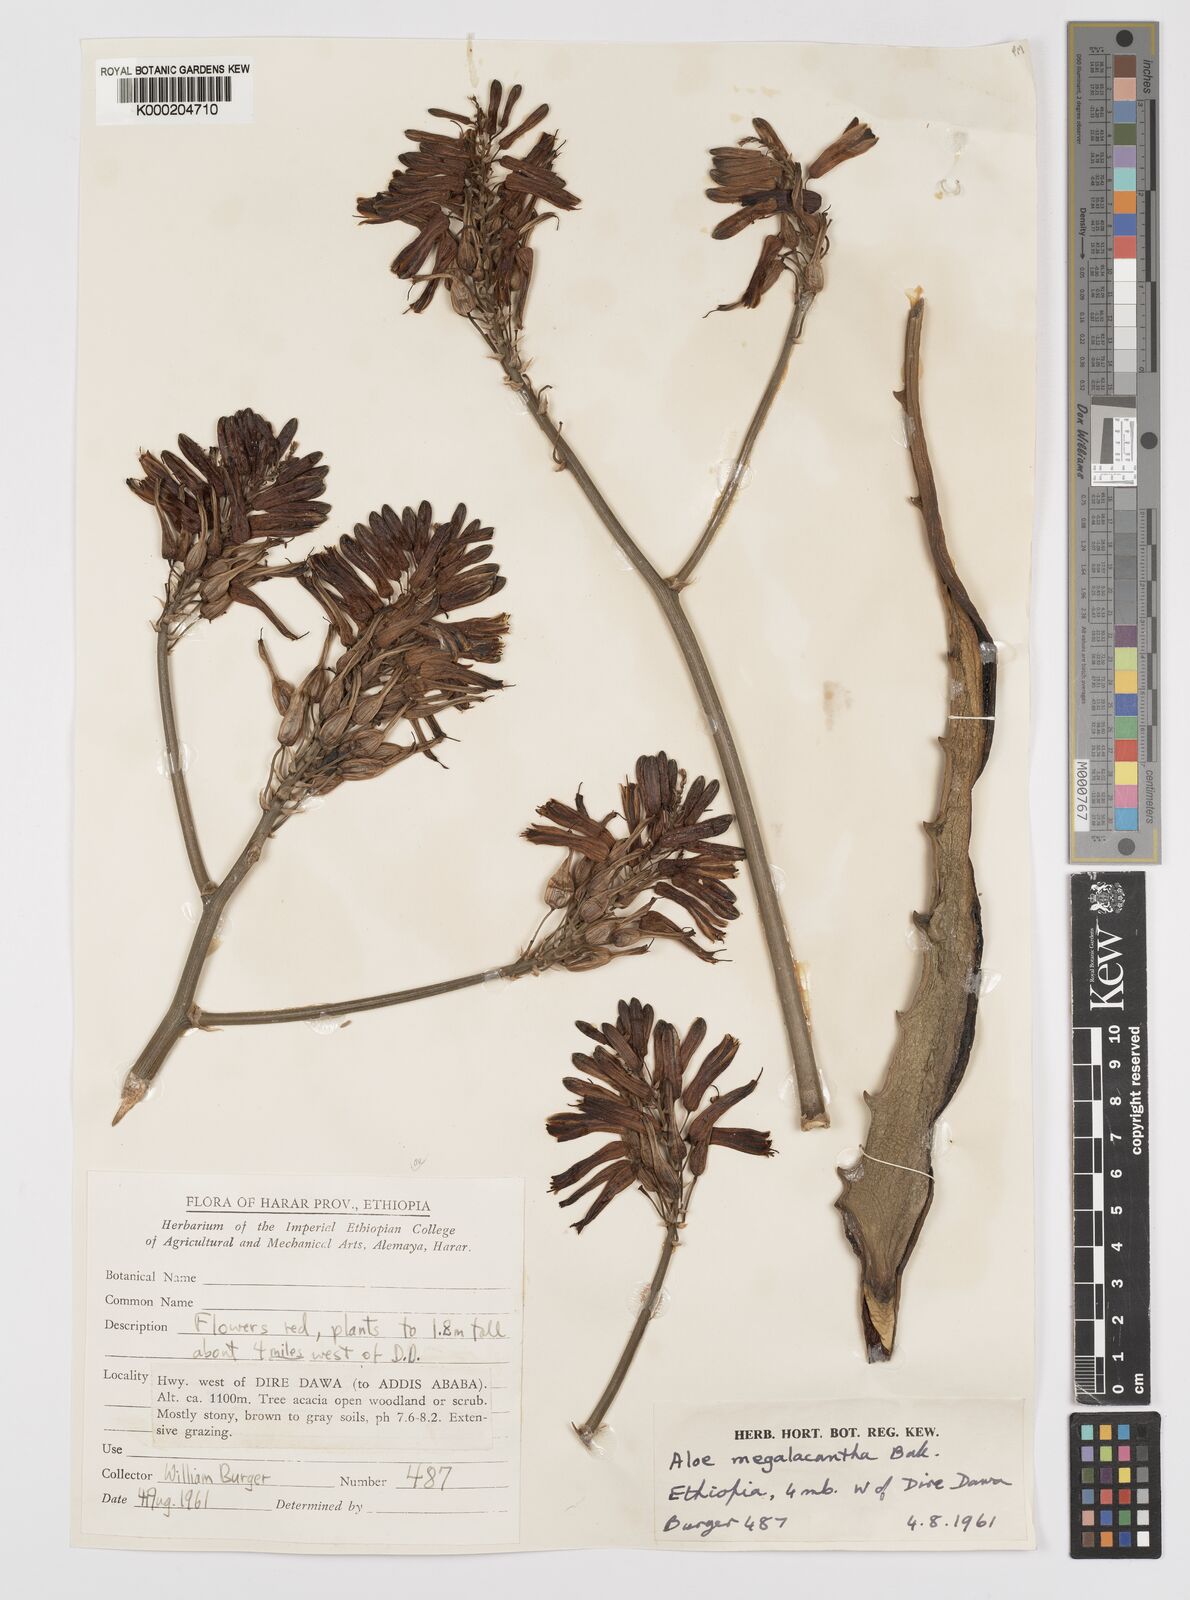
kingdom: Plantae
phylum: Tracheophyta
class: Liliopsida
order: Asparagales
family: Asphodelaceae
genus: Aloe
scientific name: Aloe megalacantha
